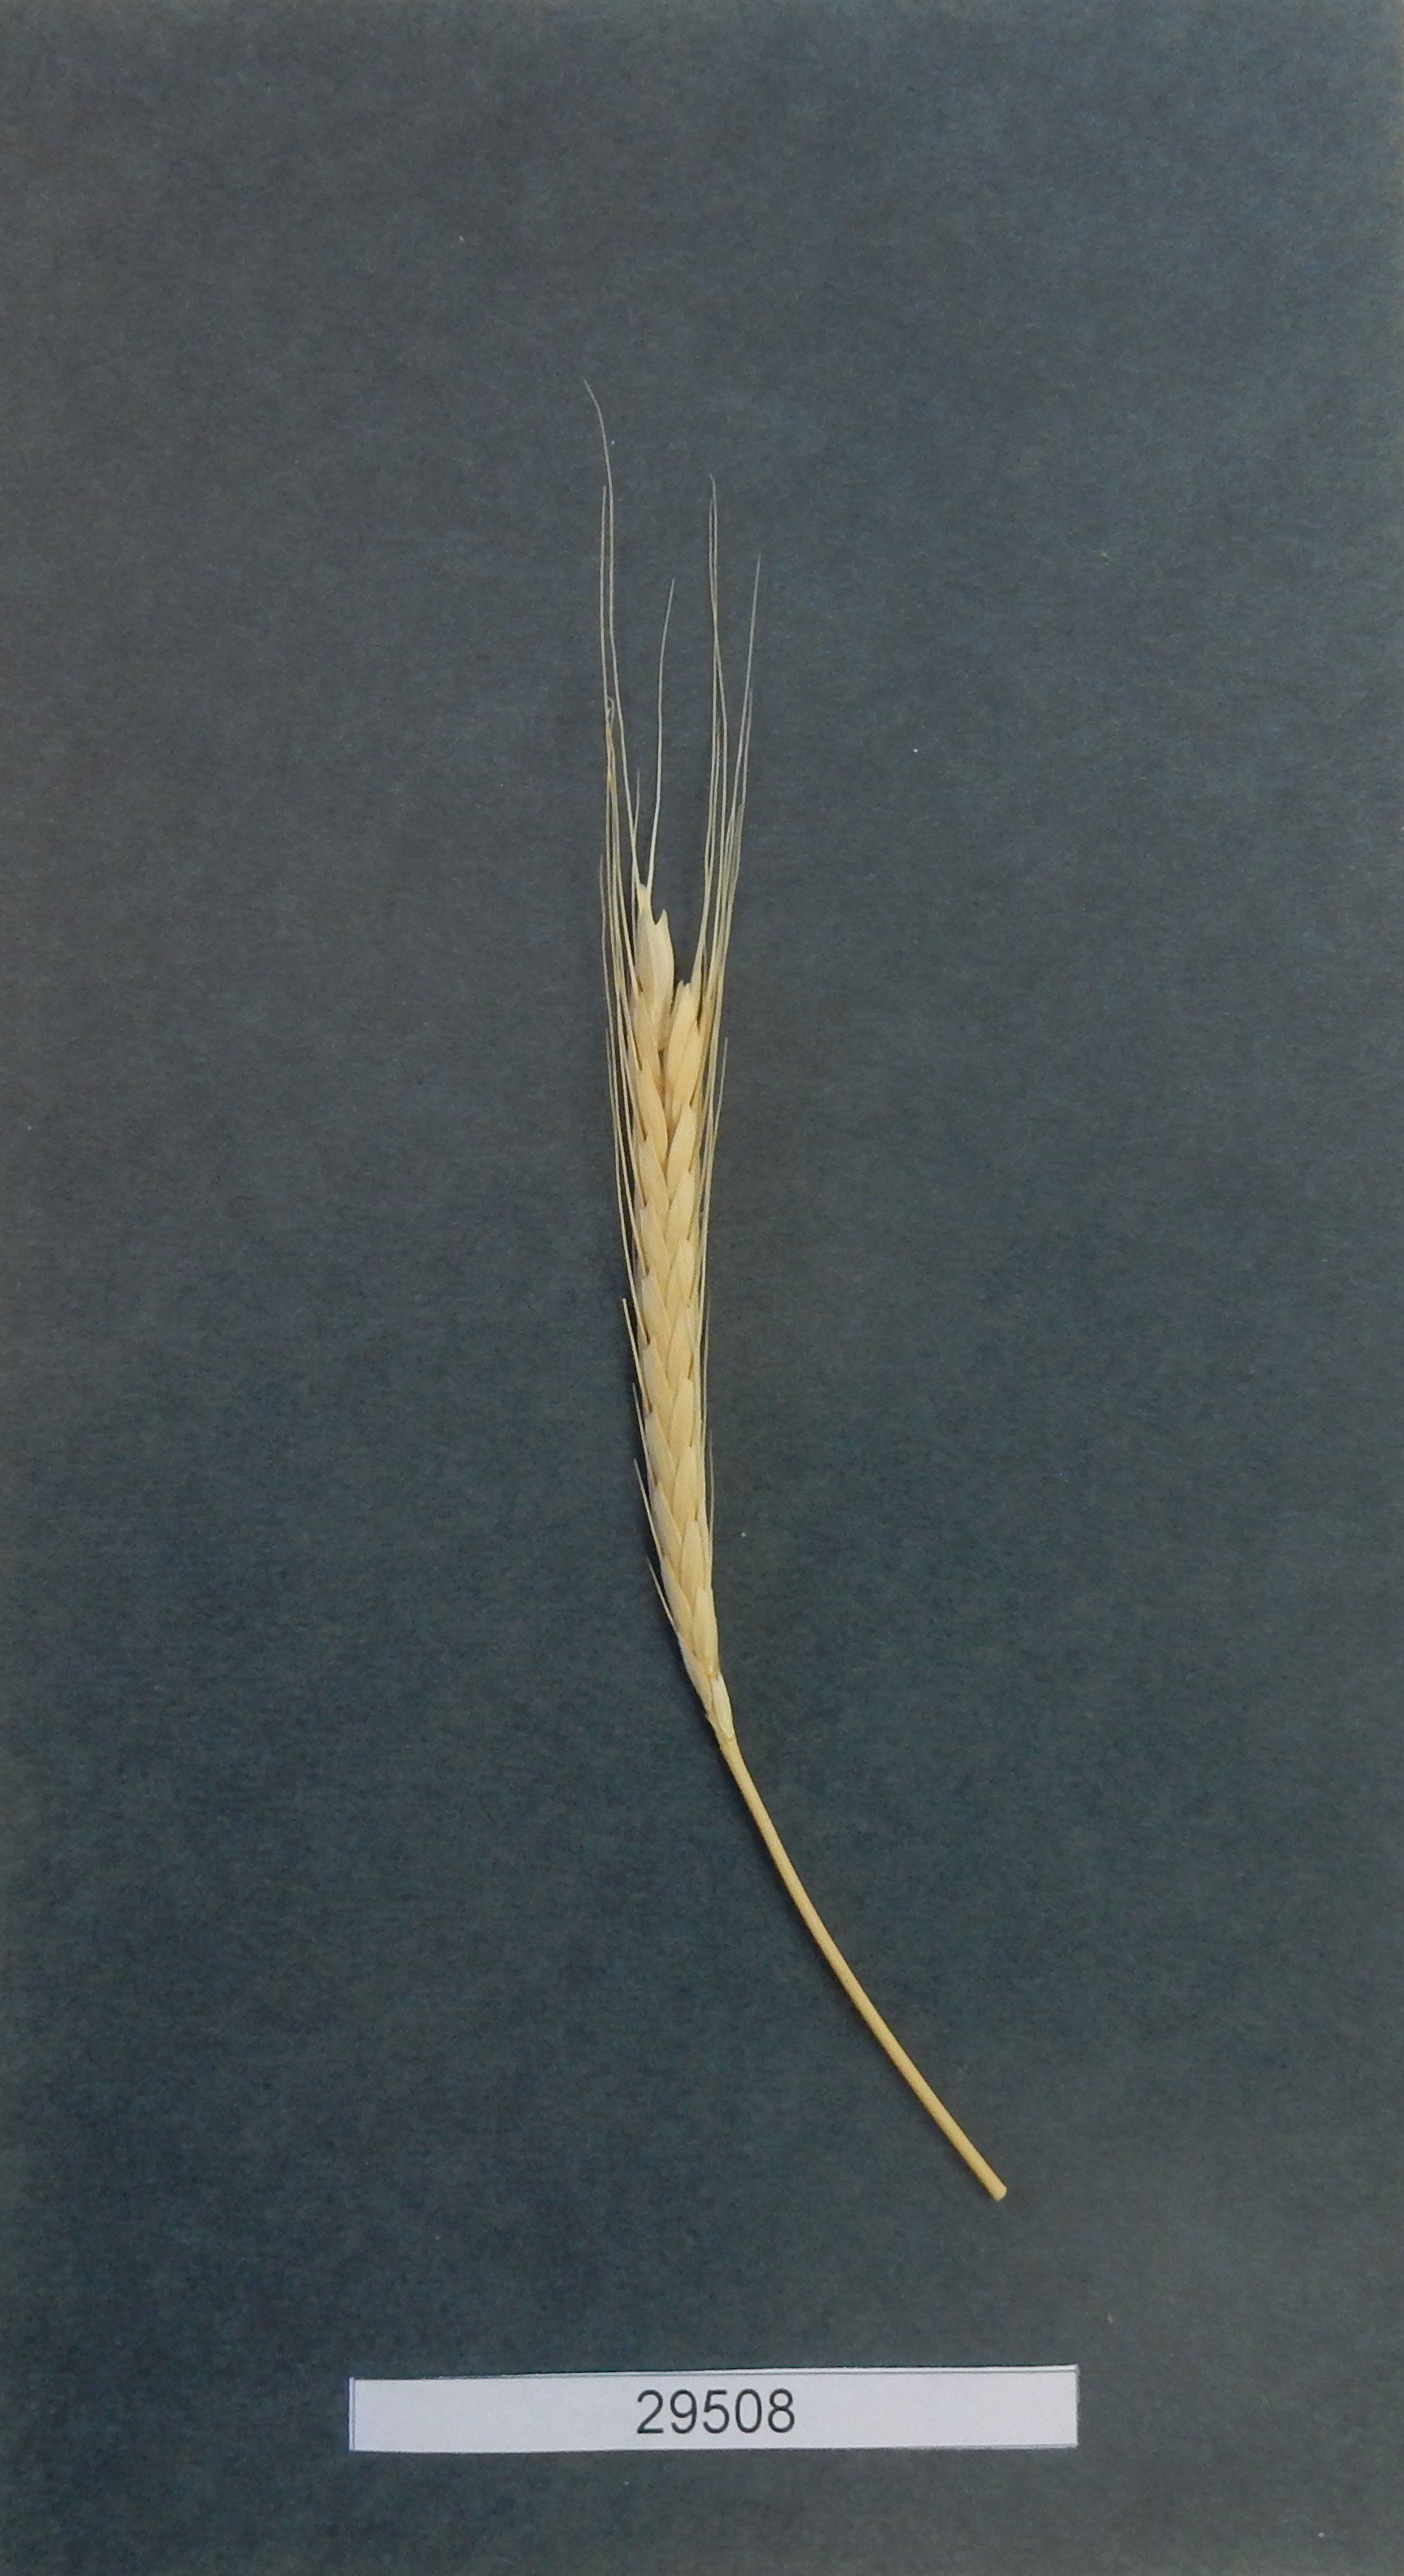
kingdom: Plantae
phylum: Tracheophyta
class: Liliopsida
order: Poales
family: Poaceae
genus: Triticum
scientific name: Triticum urartu
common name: Red wild einkorn
